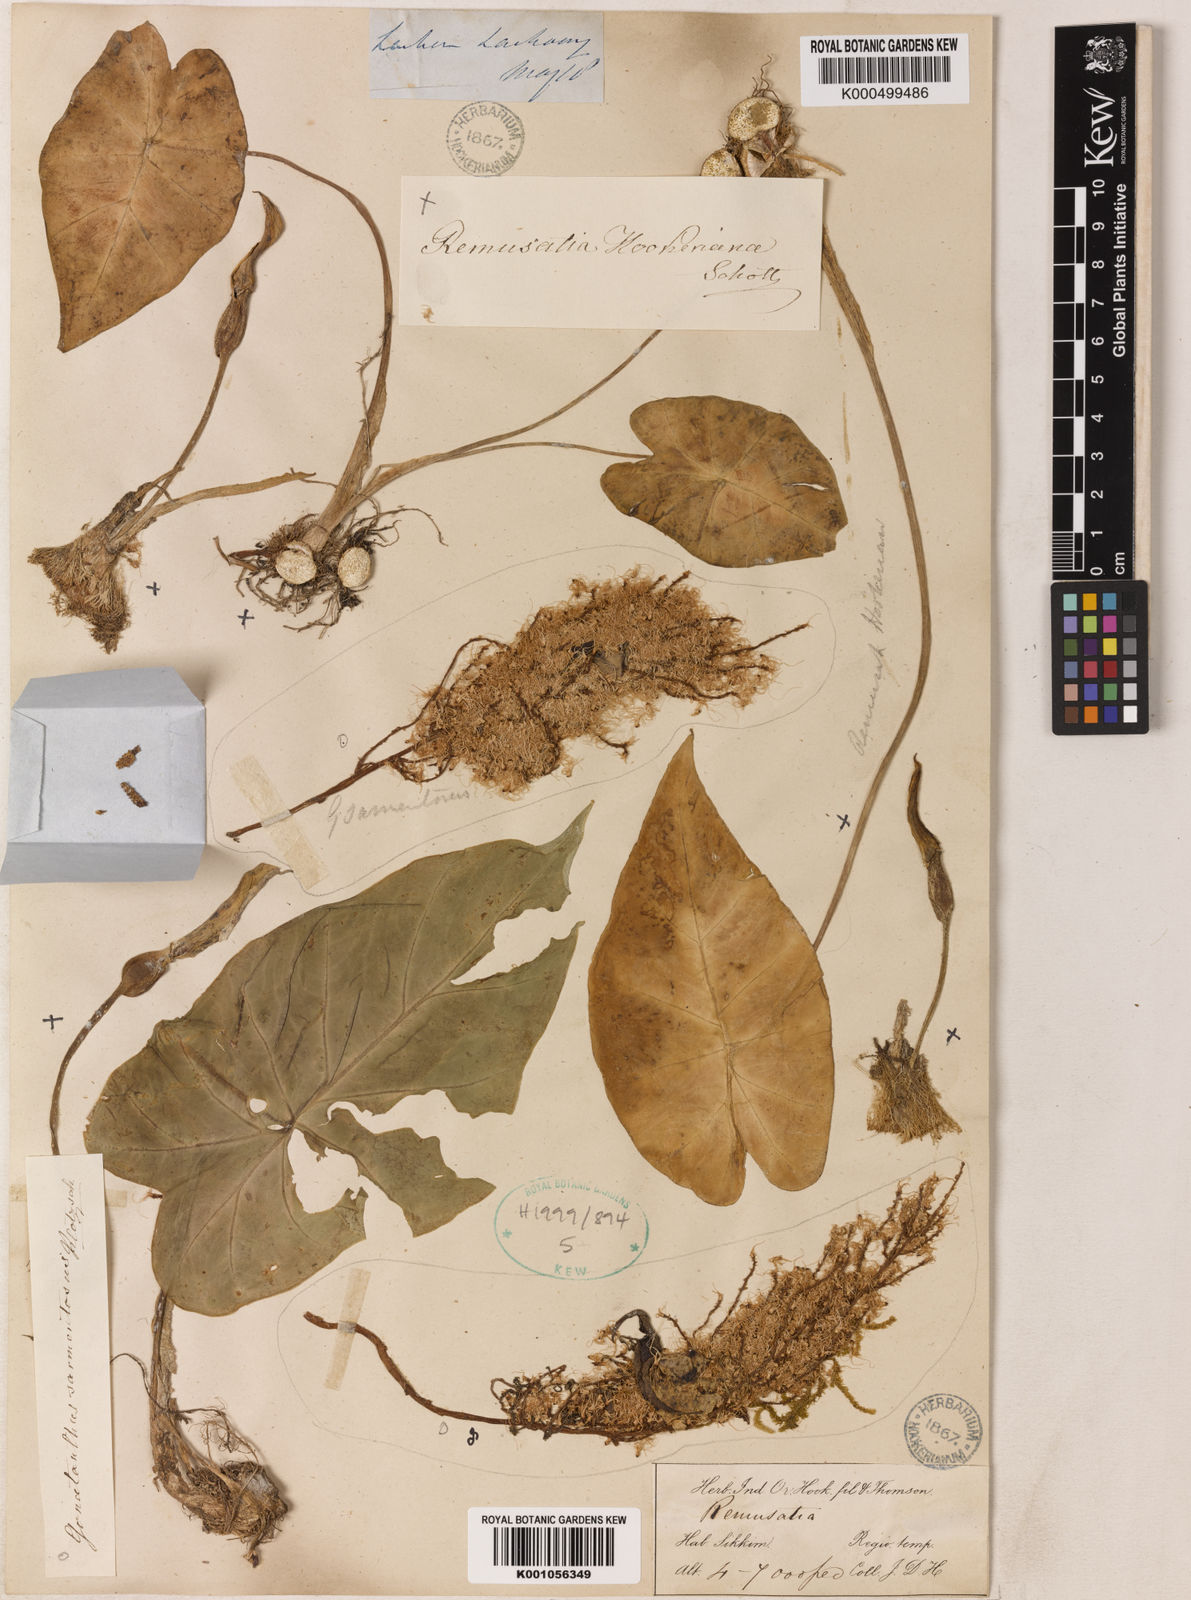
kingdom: Plantae
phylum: Tracheophyta
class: Liliopsida
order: Alismatales
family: Araceae
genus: Remusatia
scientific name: Remusatia hookeriana
